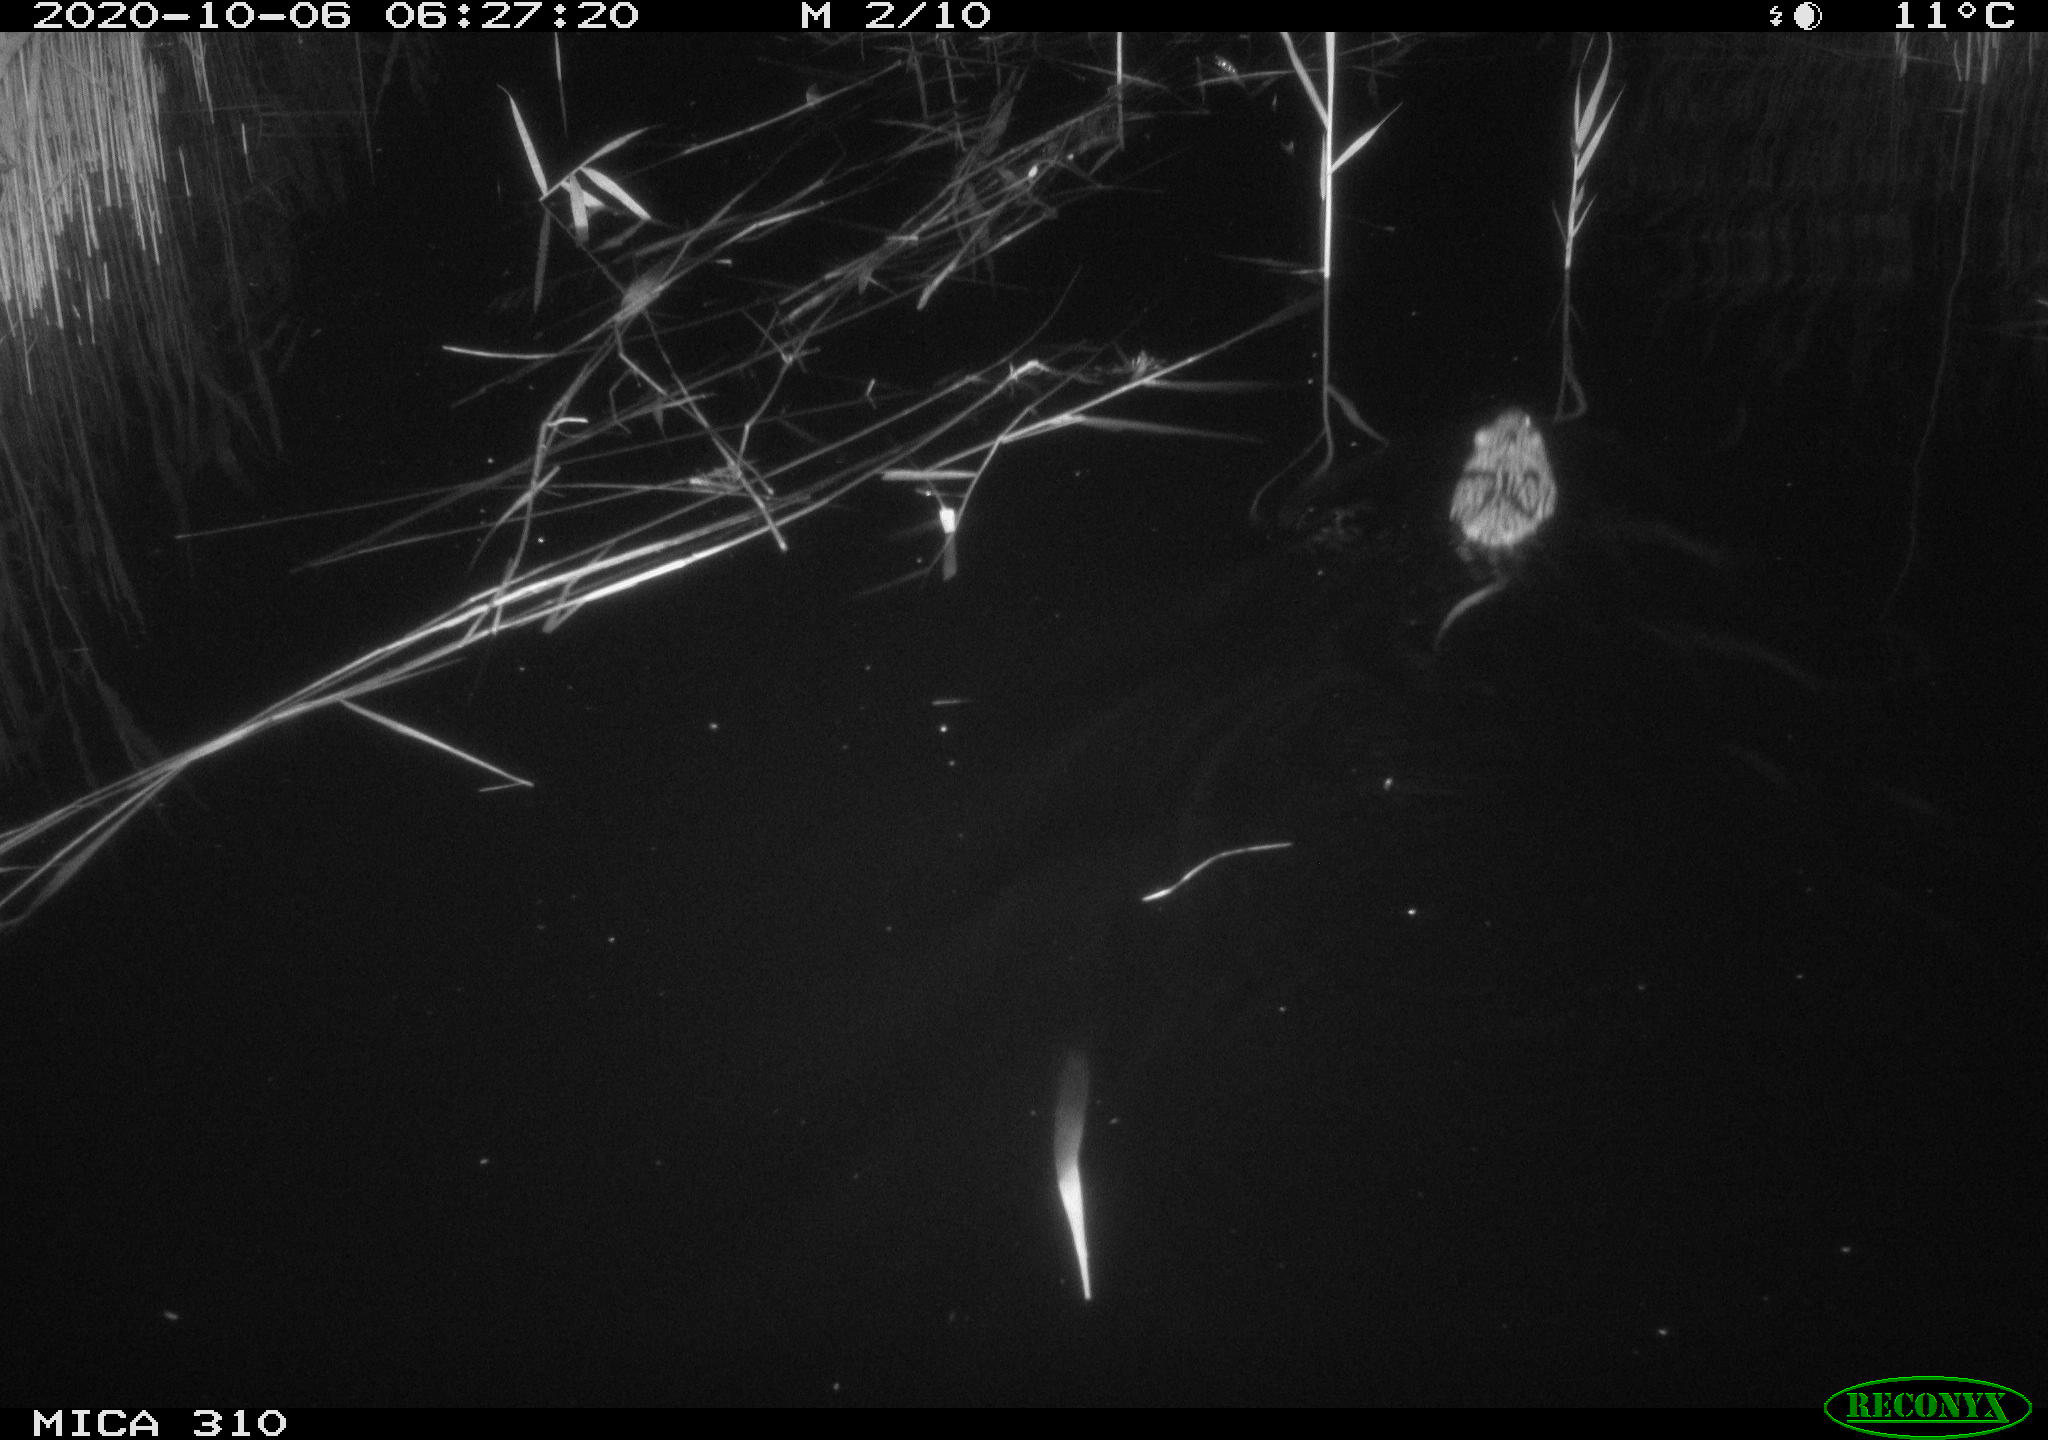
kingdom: Animalia
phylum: Chordata
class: Mammalia
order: Rodentia
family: Cricetidae
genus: Ondatra
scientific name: Ondatra zibethicus
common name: Muskrat
